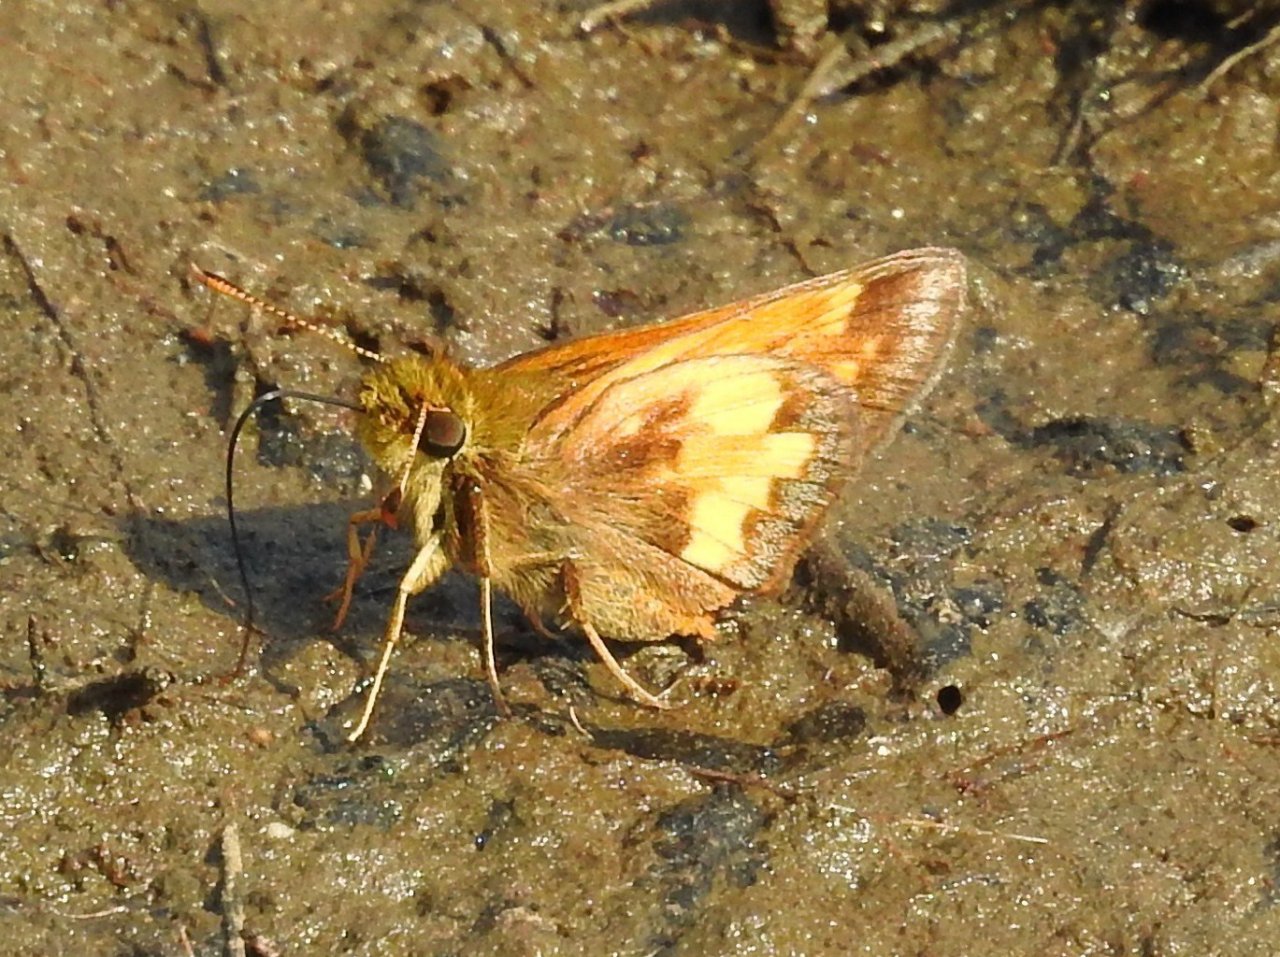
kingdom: Animalia
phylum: Arthropoda
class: Insecta
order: Lepidoptera
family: Hesperiidae
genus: Lon
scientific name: Lon hobomok
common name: Hobomok Skipper
